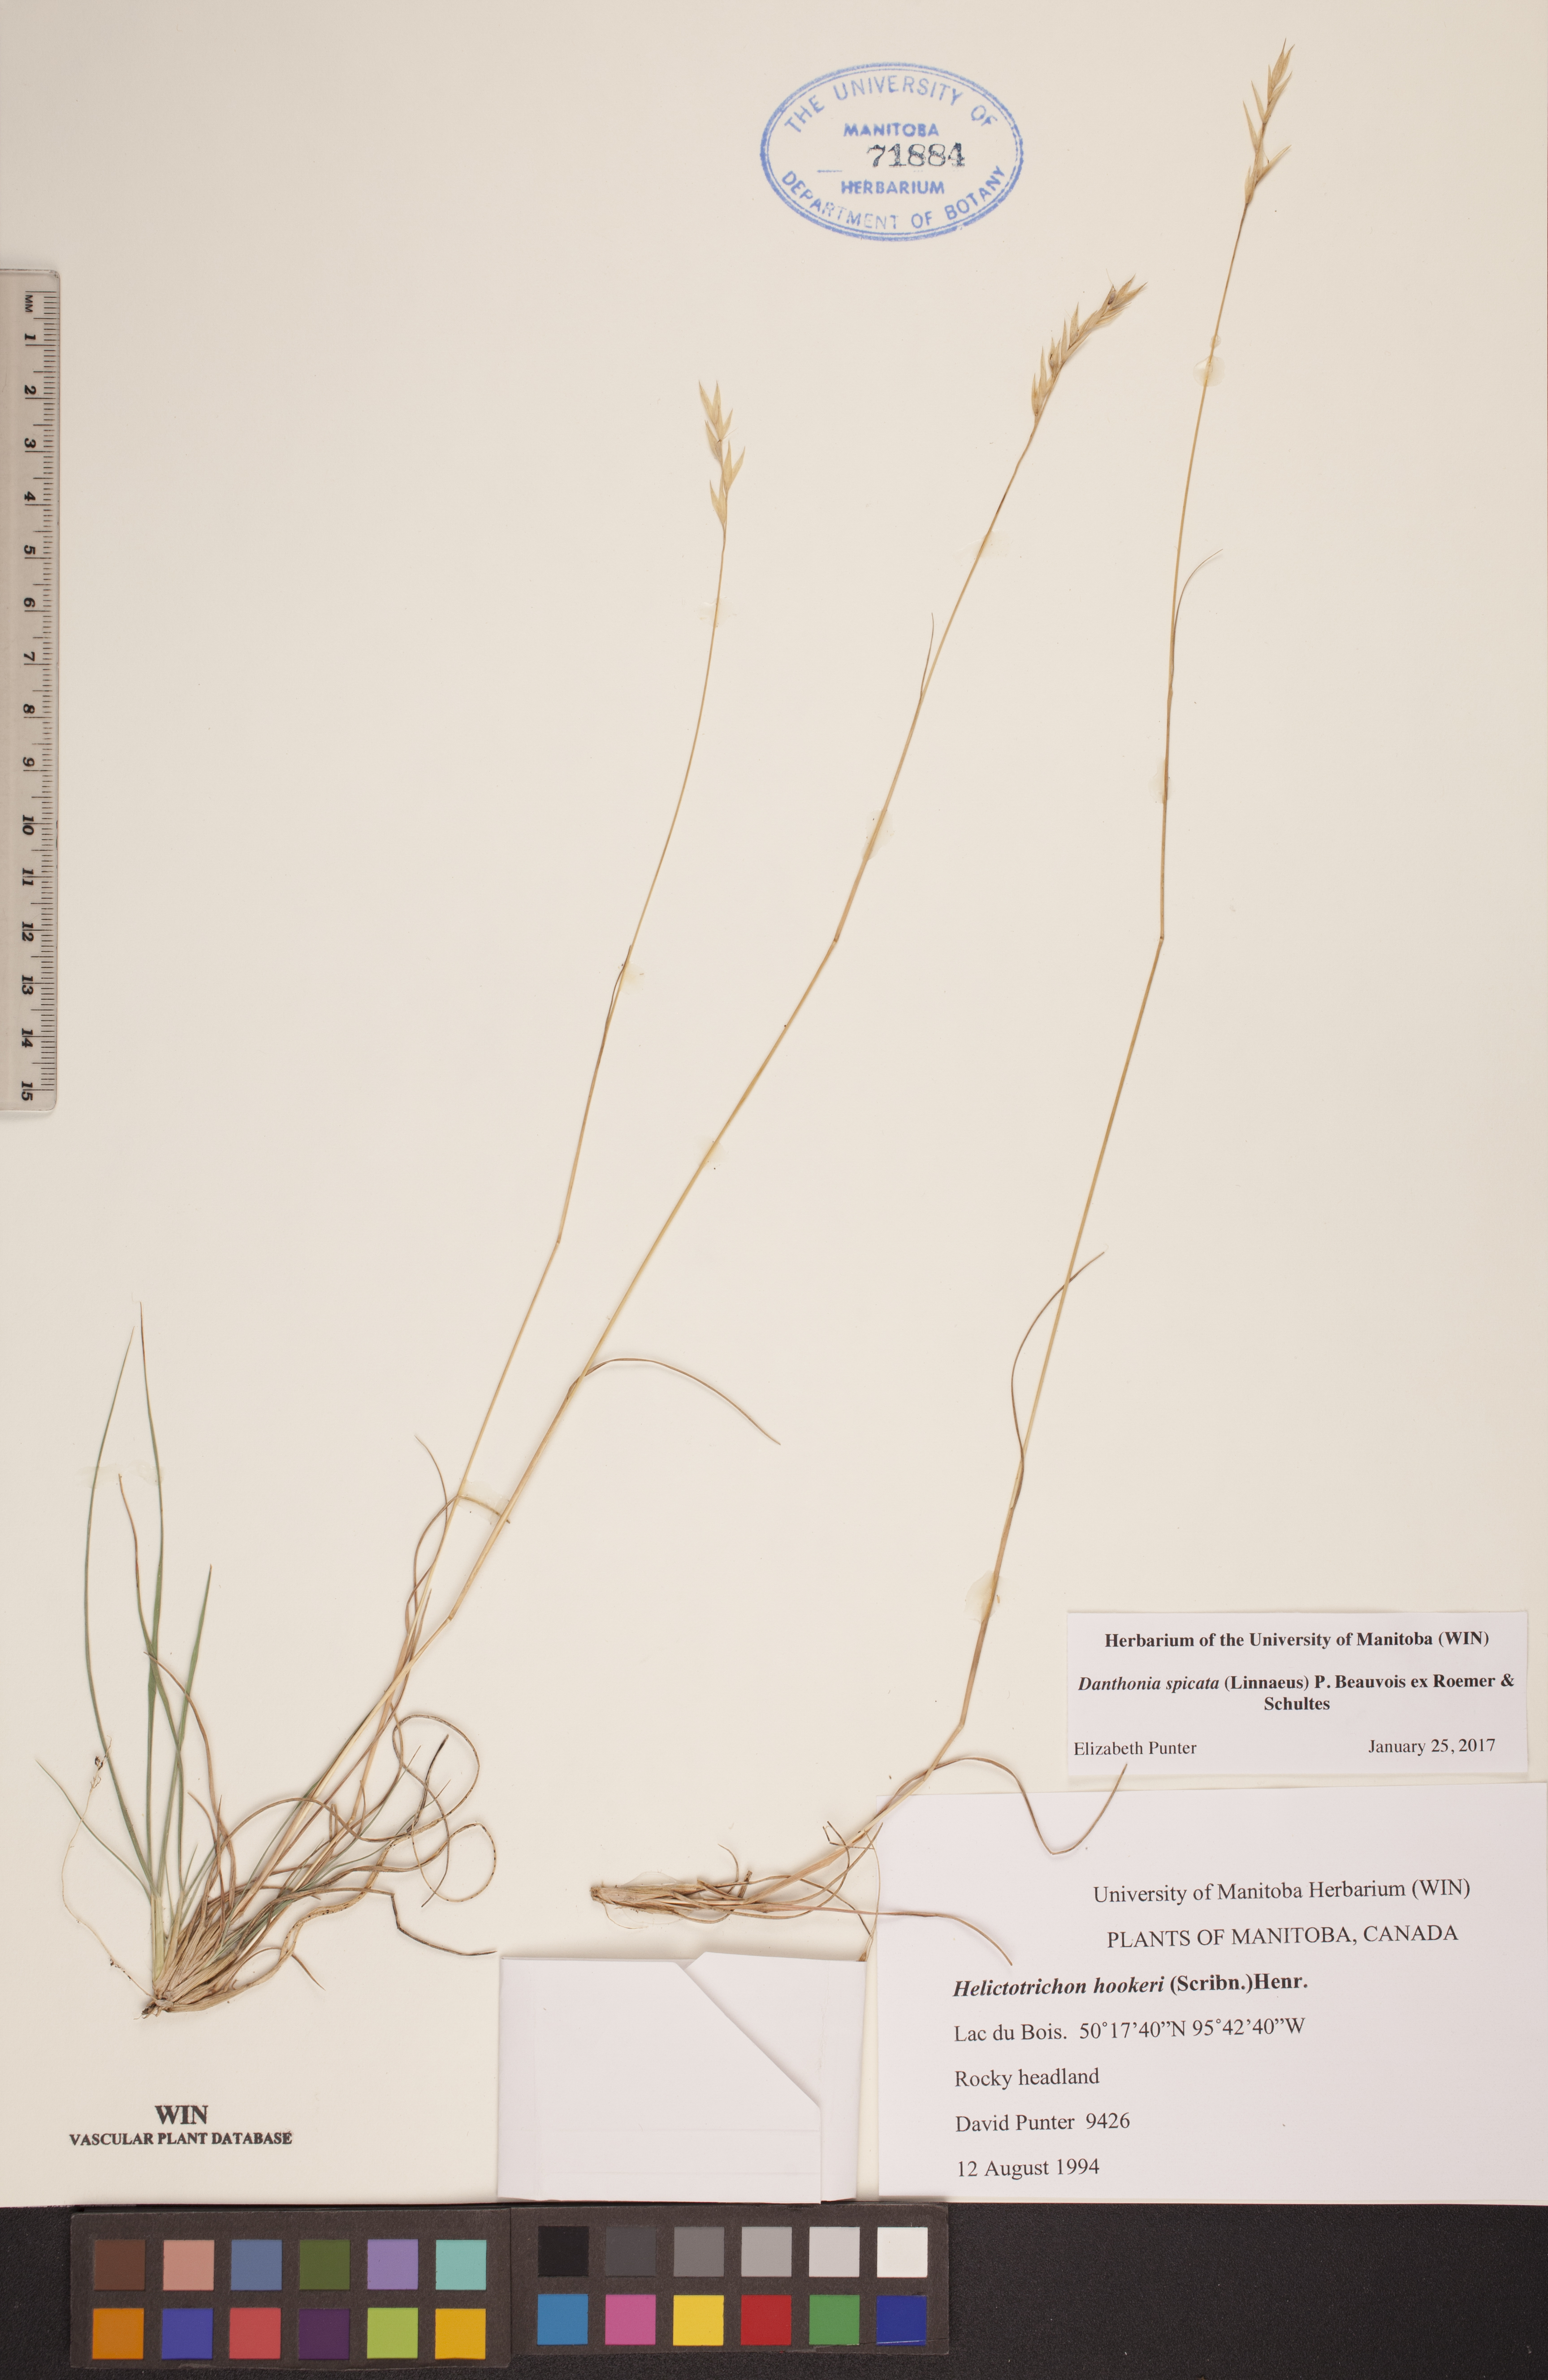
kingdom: Plantae
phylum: Tracheophyta
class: Liliopsida
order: Poales
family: Poaceae
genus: Danthonia
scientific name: Danthonia spicata
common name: Common wild oatgrass
